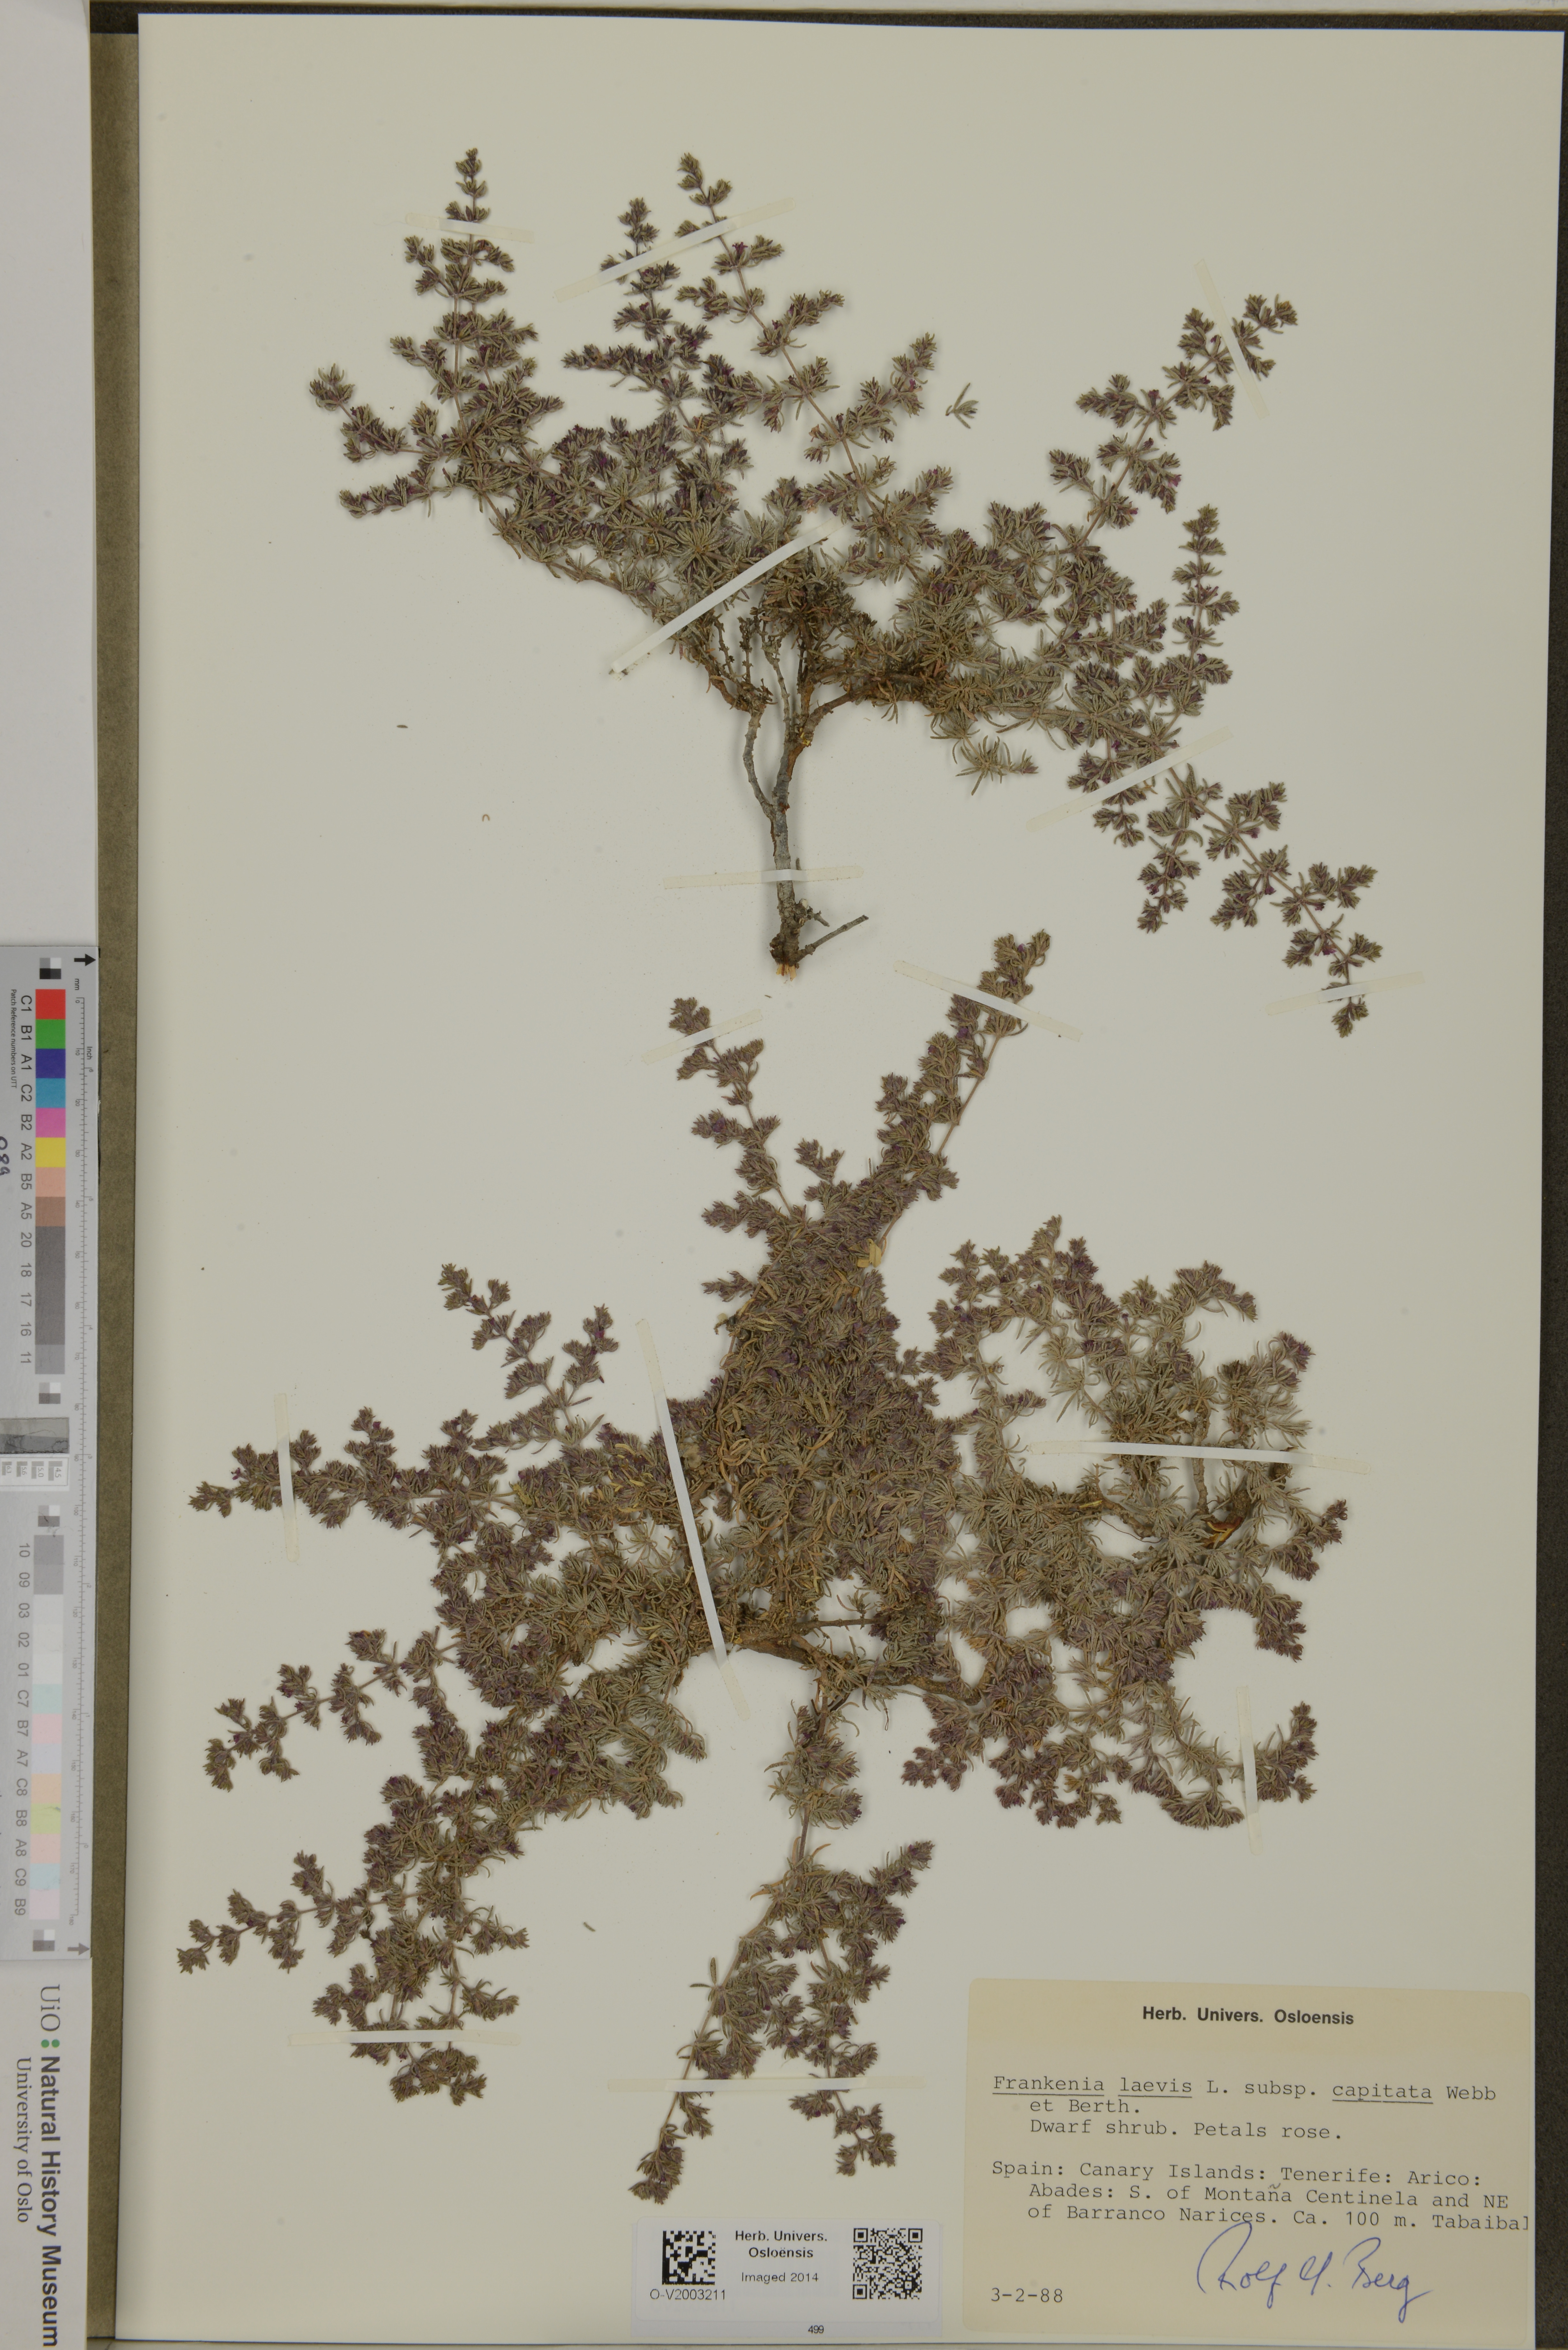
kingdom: Plantae
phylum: Tracheophyta
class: Magnoliopsida
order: Caryophyllales
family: Frankeniaceae
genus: Frankenia
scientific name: Frankenia capitata
